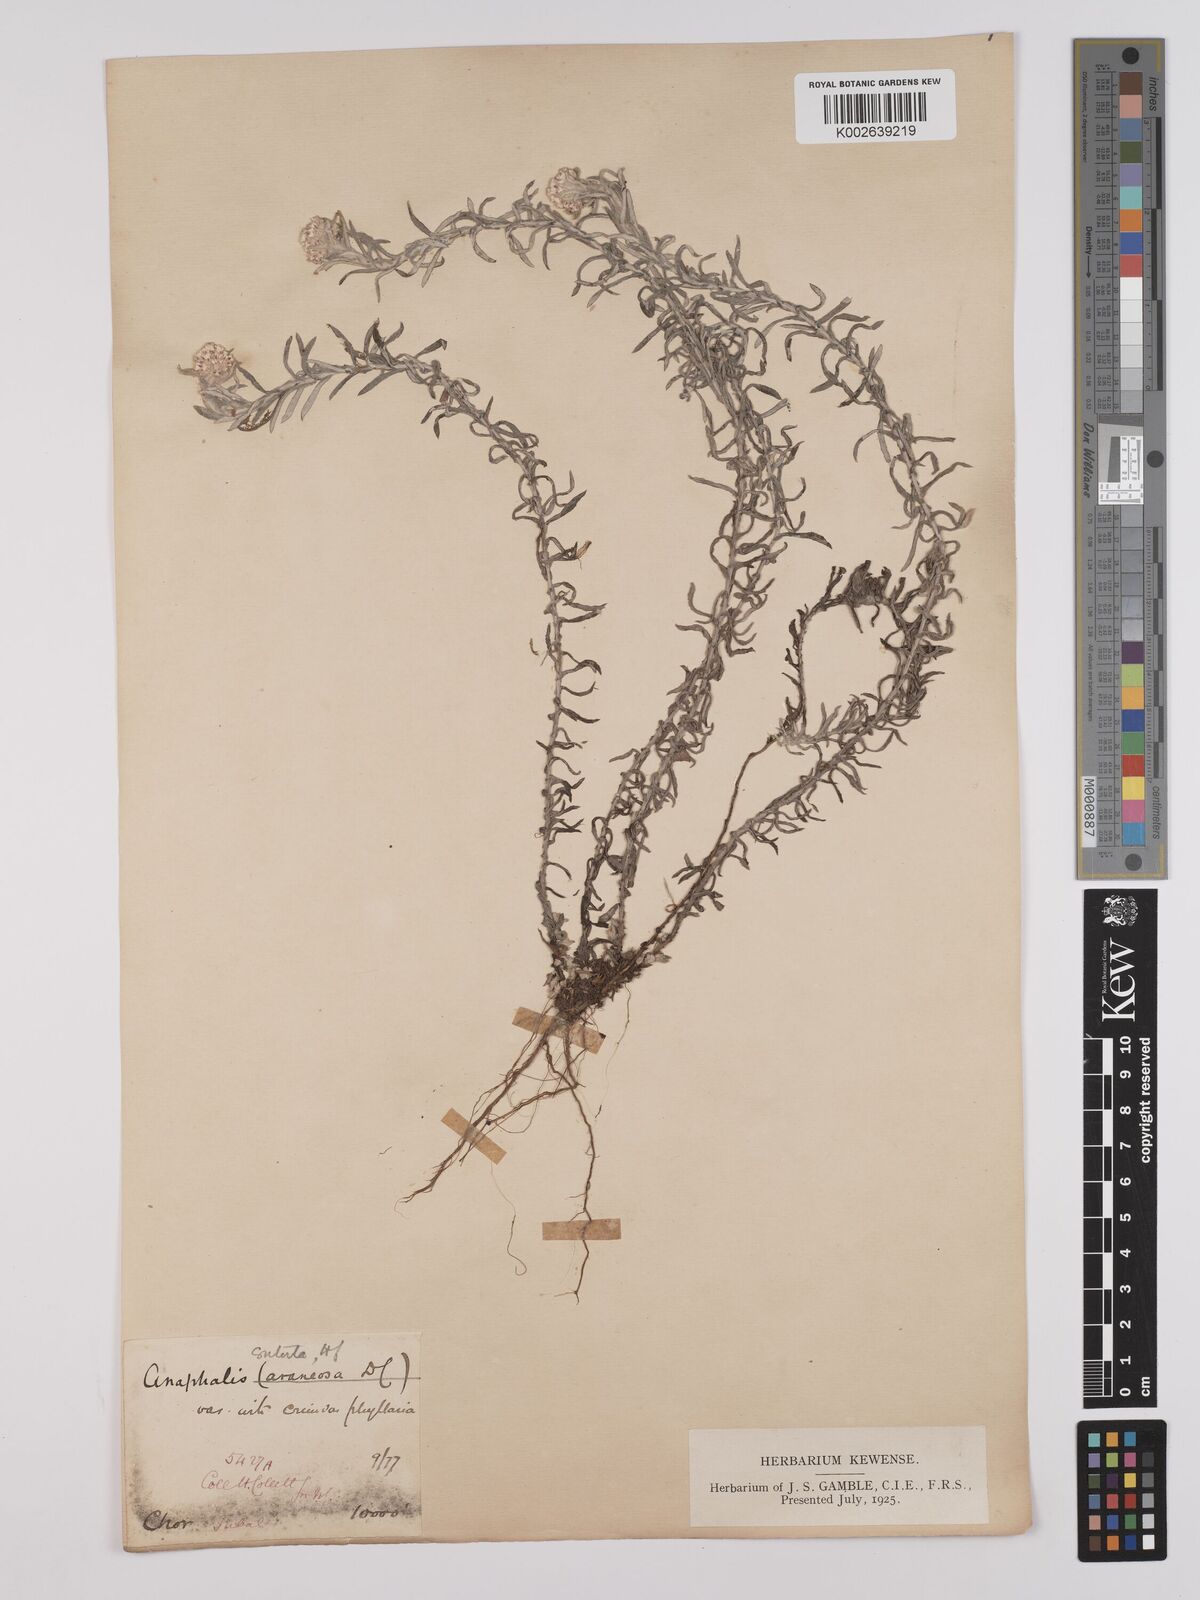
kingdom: Plantae
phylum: Tracheophyta
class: Magnoliopsida
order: Asterales
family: Asteraceae
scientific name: Asteraceae
